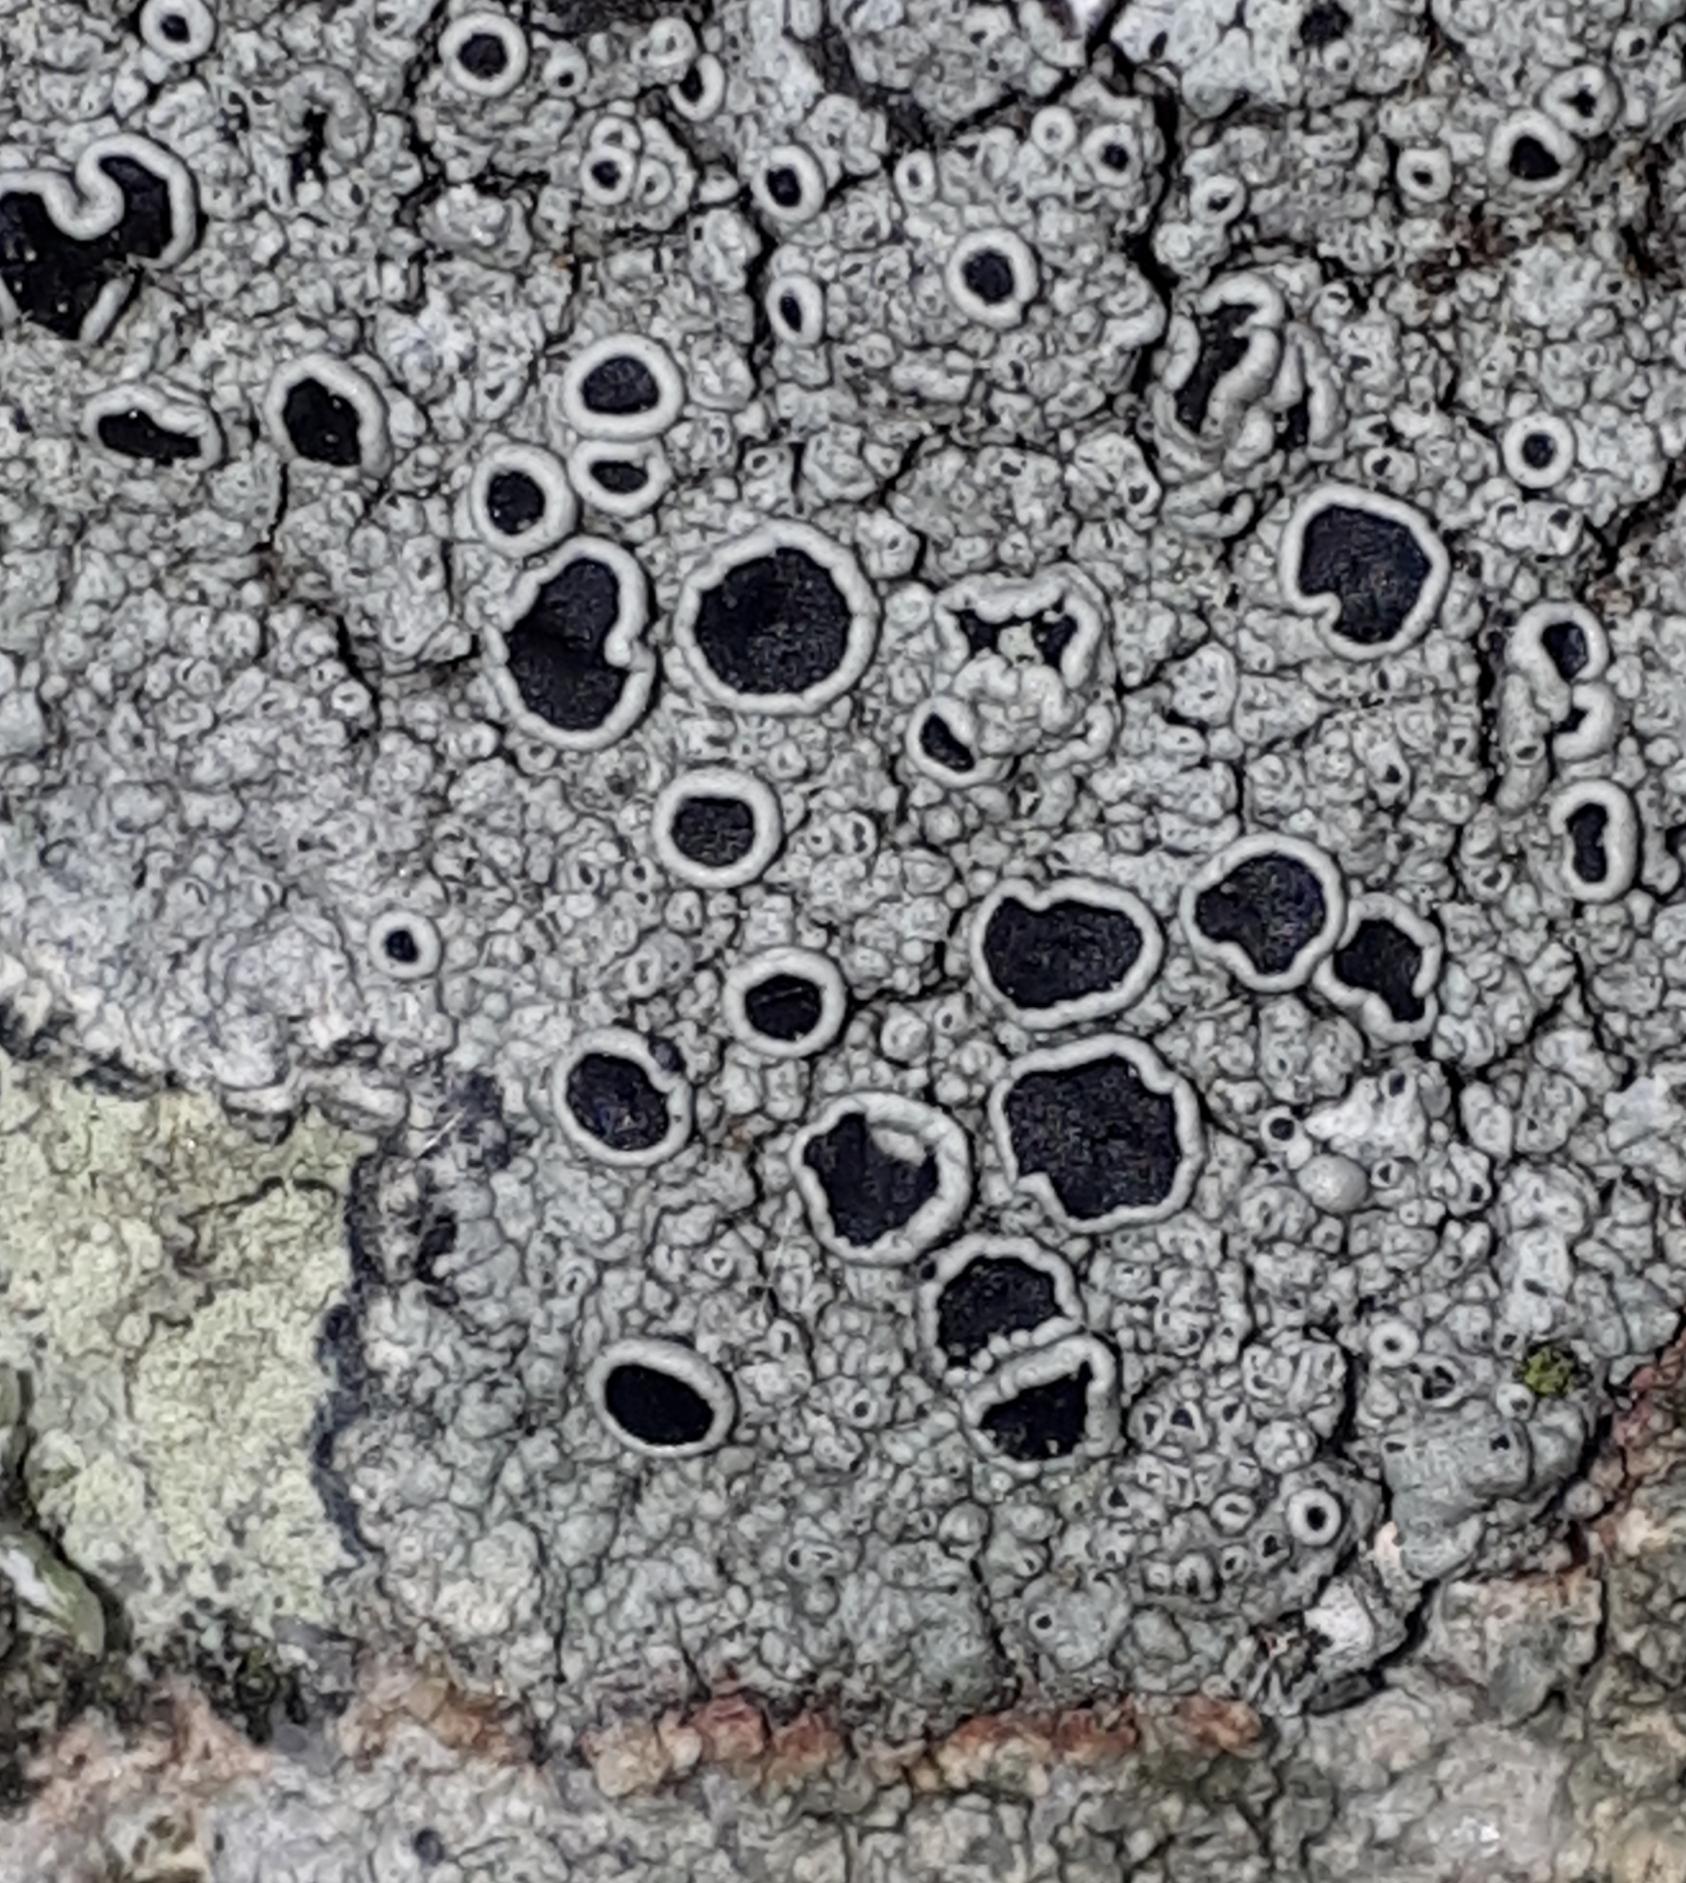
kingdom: Fungi
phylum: Ascomycota
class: Lecanoromycetes
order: Lecanorales
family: Tephromelataceae
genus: Tephromela
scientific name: Tephromela atra
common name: sortfrugtet kantskivelav
